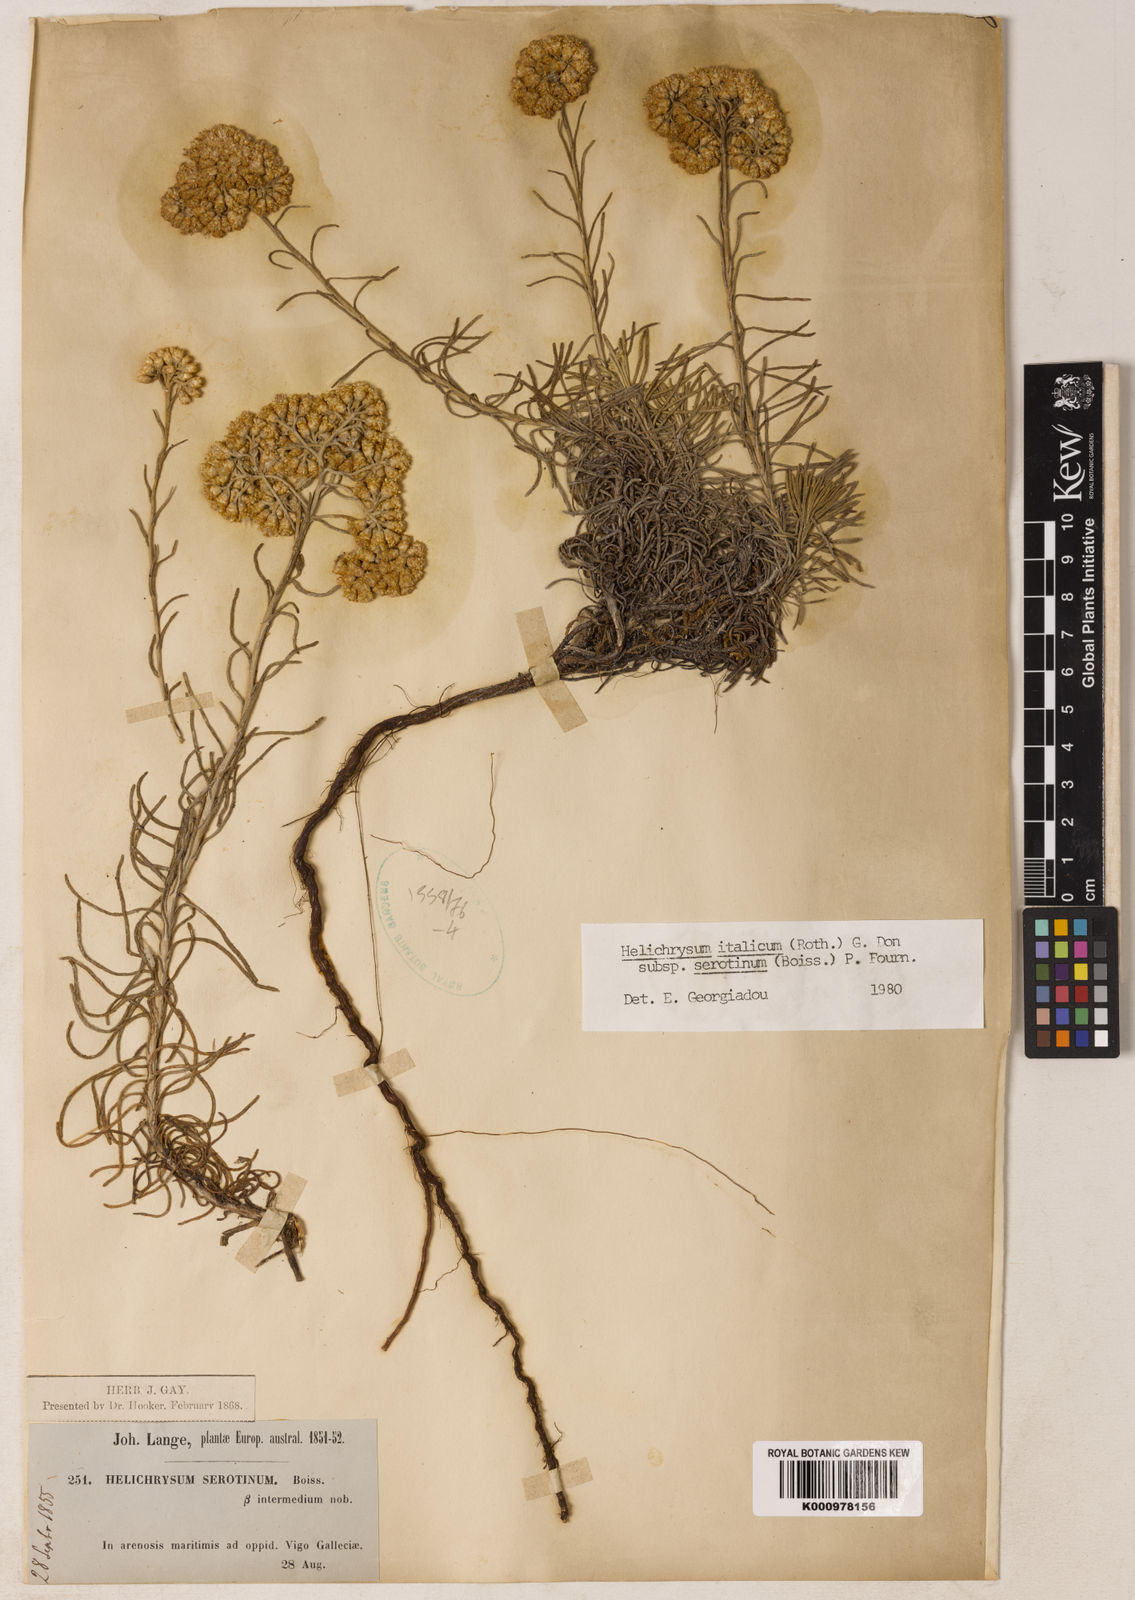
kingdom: Plantae
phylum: Tracheophyta
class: Magnoliopsida
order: Asterales
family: Asteraceae
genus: Helichrysum
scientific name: Helichrysum serotinum
